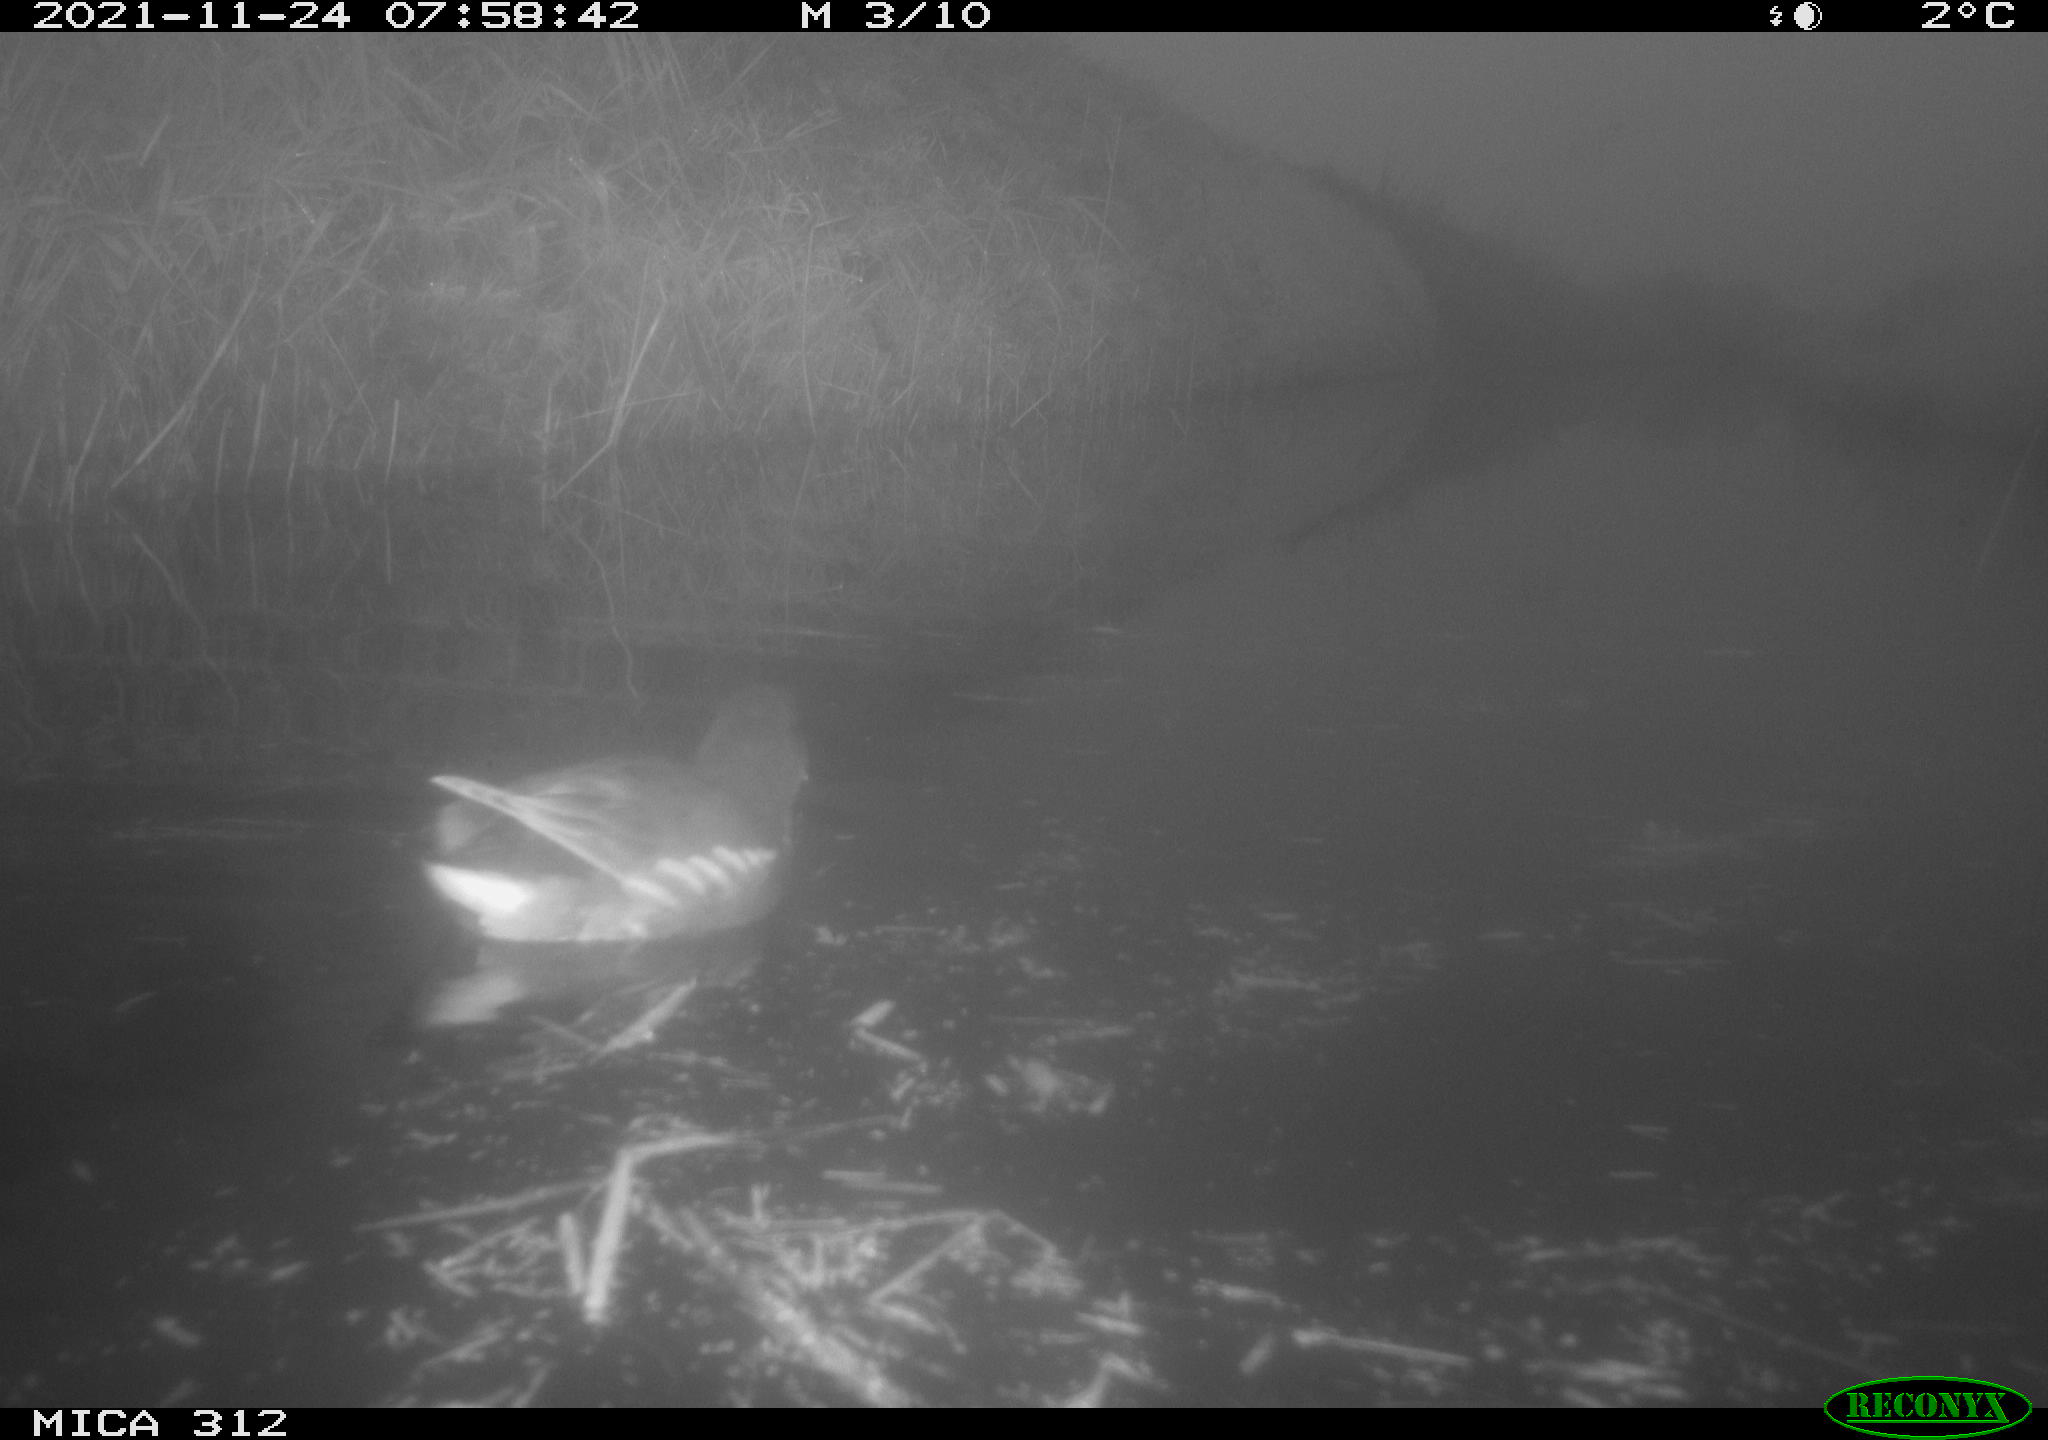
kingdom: Animalia
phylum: Chordata
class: Aves
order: Gruiformes
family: Rallidae
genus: Gallinula
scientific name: Gallinula chloropus
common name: Common moorhen
